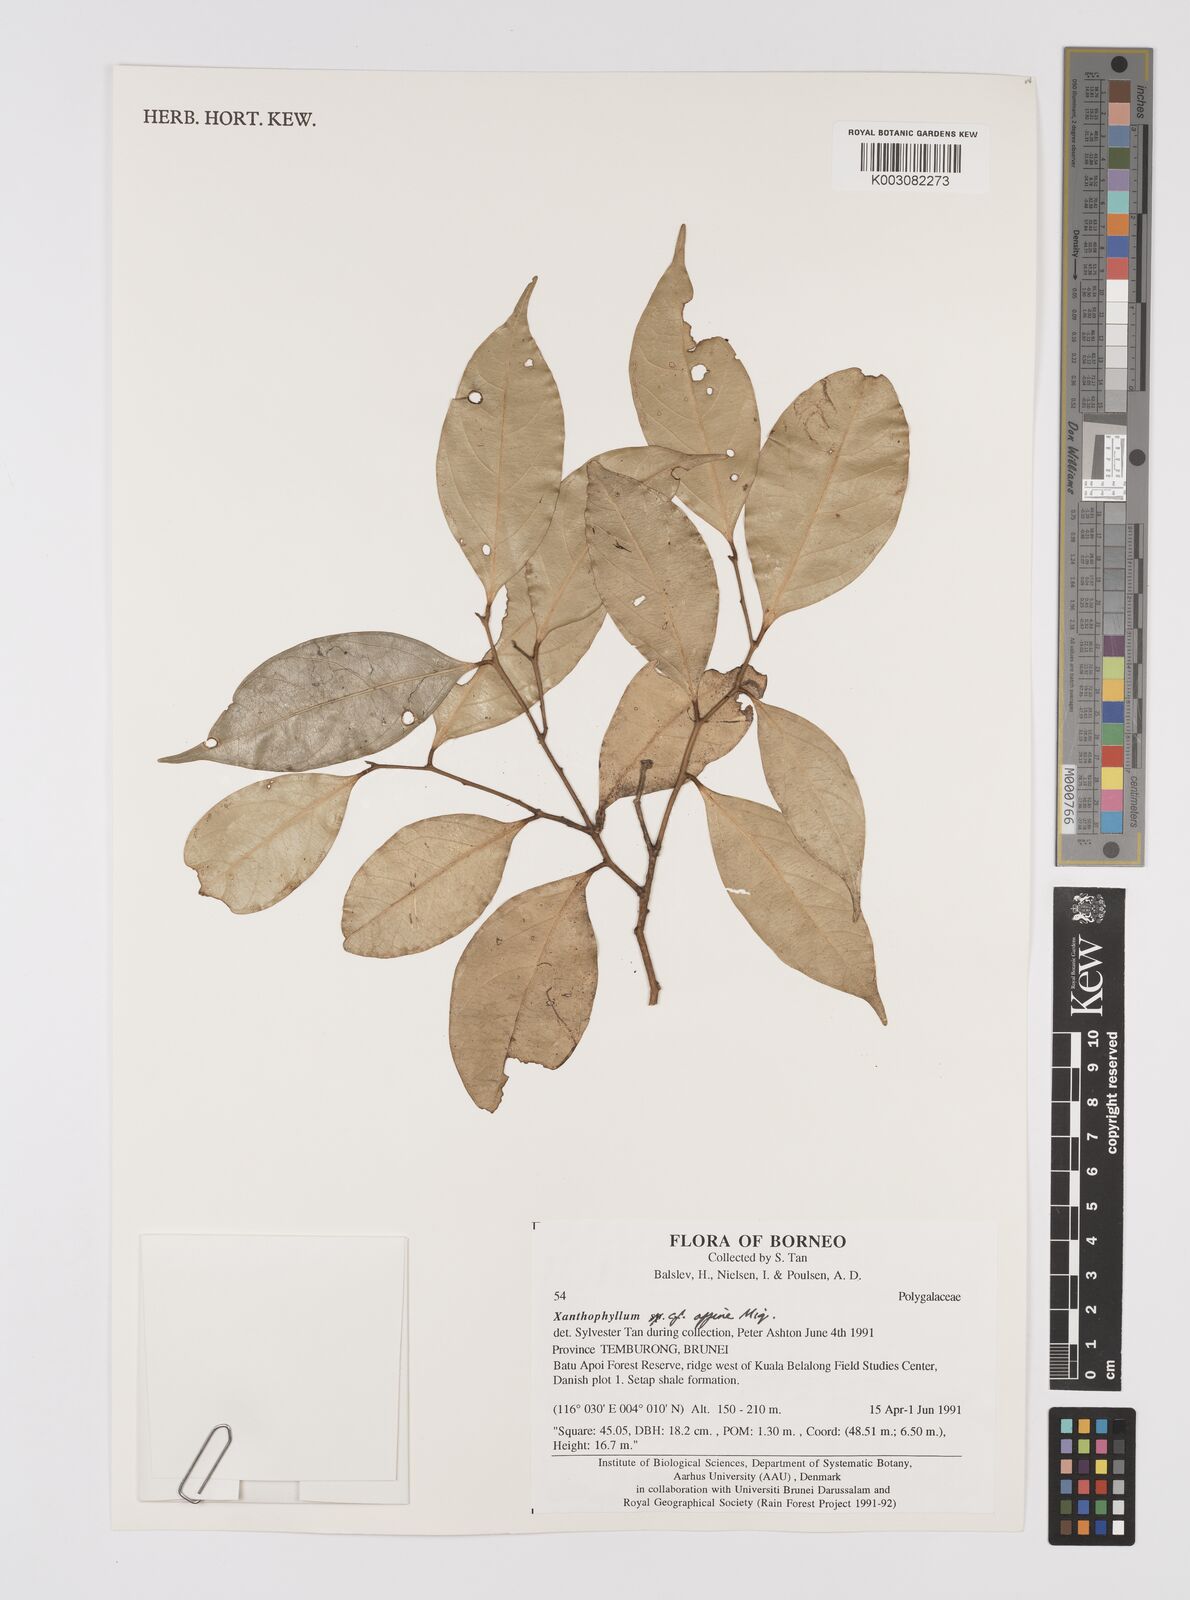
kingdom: Plantae
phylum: Tracheophyta
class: Magnoliopsida
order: Fabales
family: Polygalaceae
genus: Xanthophyllum
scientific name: Xanthophyllum flavescens
